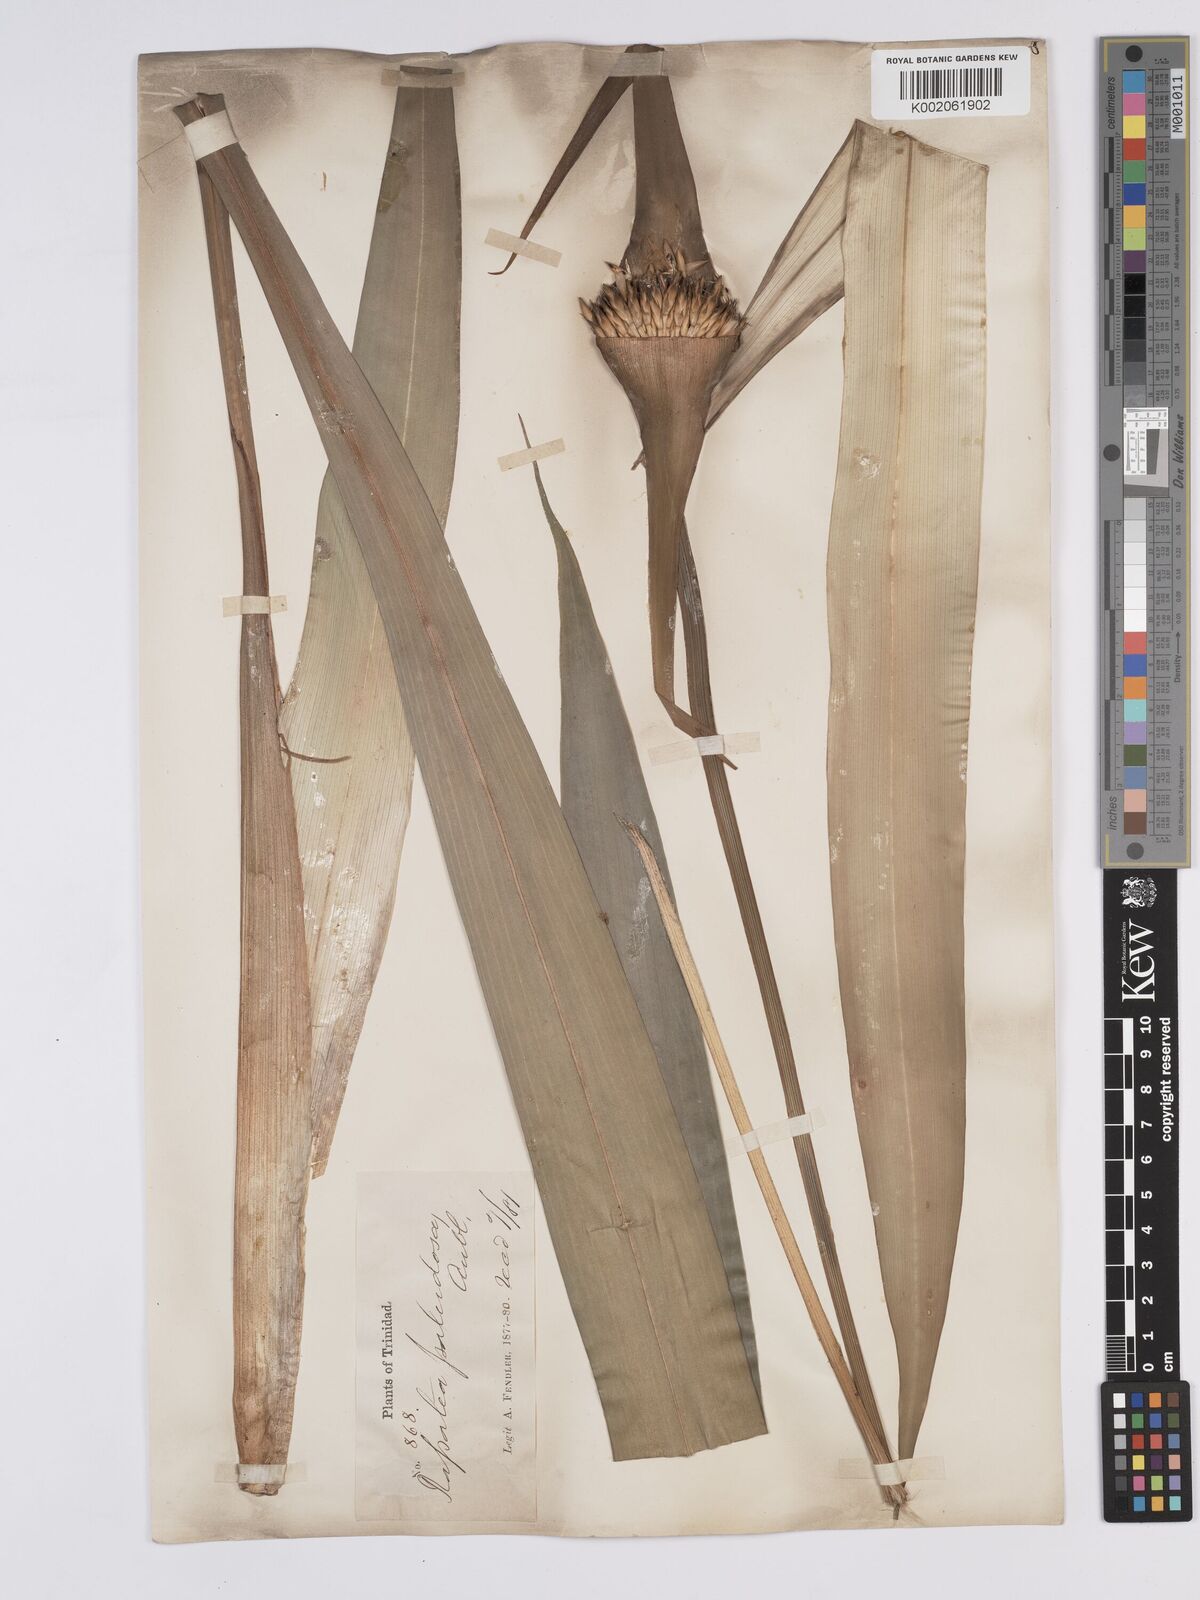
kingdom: Plantae
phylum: Tracheophyta
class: Liliopsida
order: Poales
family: Rapateaceae
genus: Rapatea
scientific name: Rapatea paludosa
